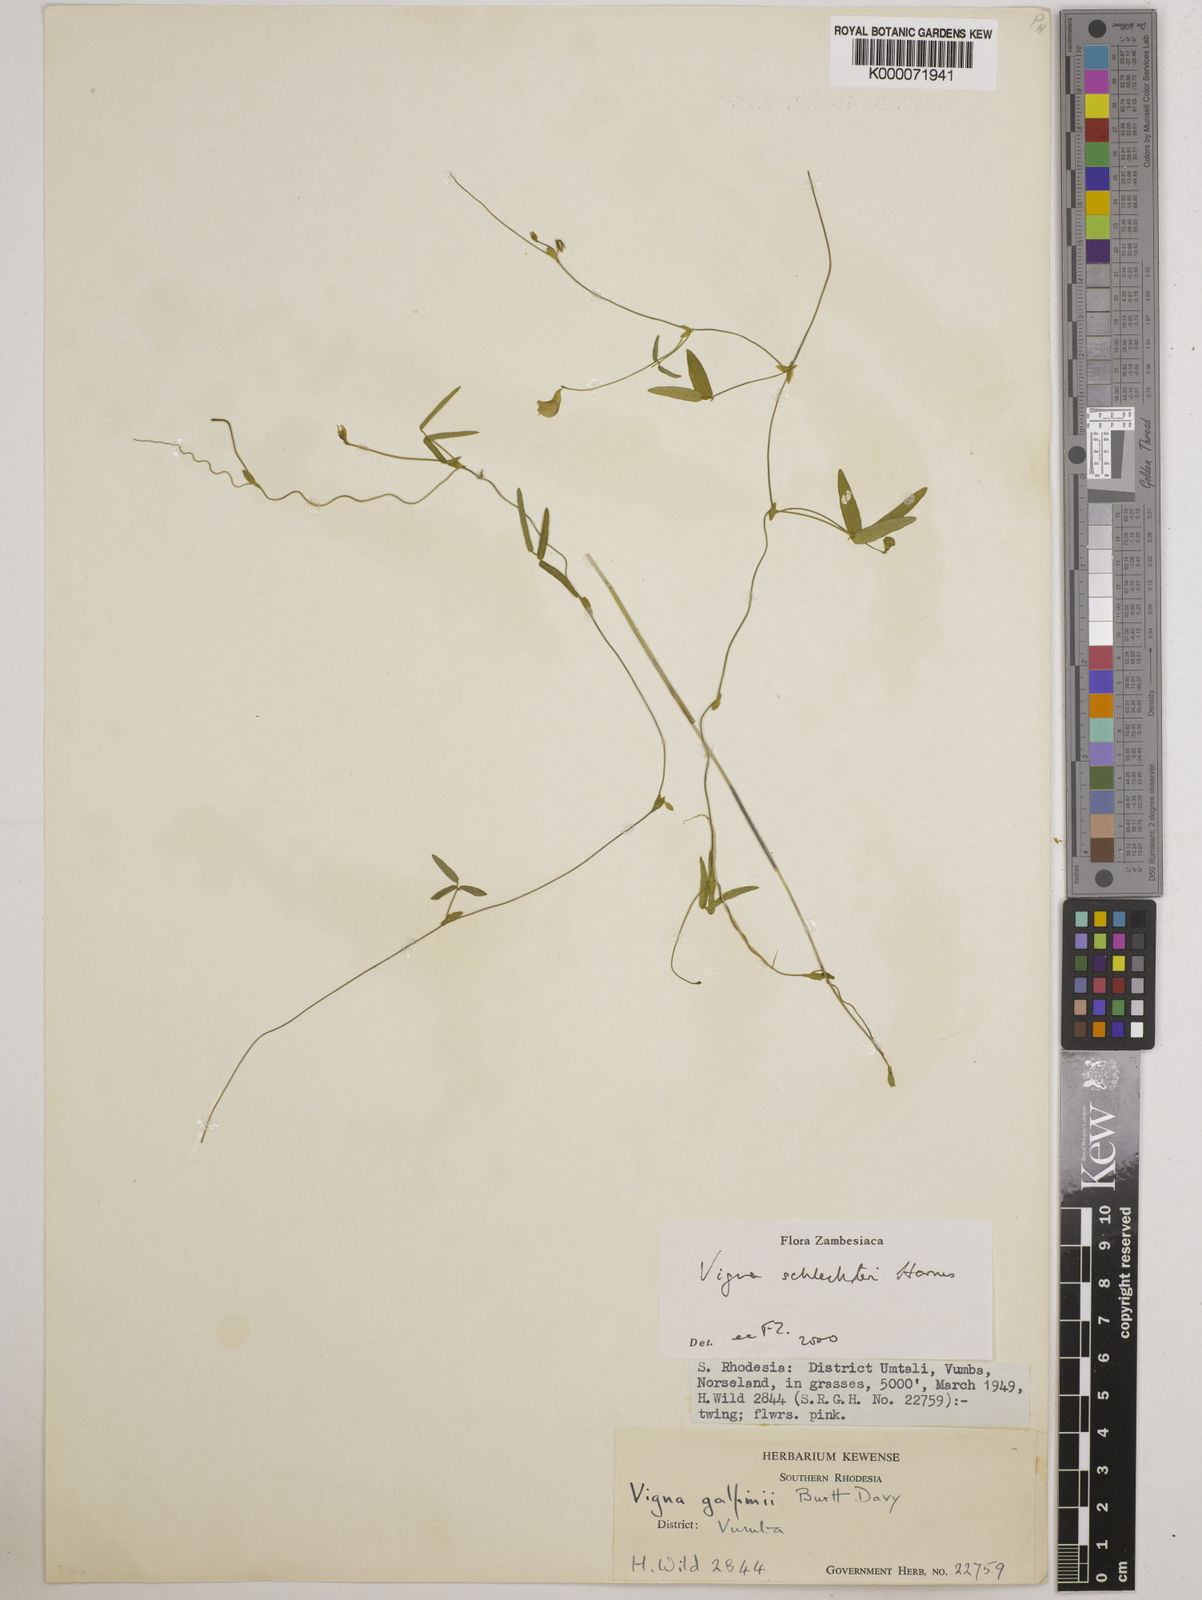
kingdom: Plantae
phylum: Tracheophyta
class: Magnoliopsida
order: Fabales
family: Fabaceae
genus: Vigna
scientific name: Vigna schlechteri
